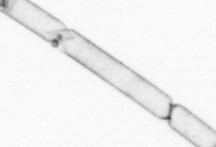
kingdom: Chromista
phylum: Ochrophyta
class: Bacillariophyceae
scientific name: Bacillariophyceae
